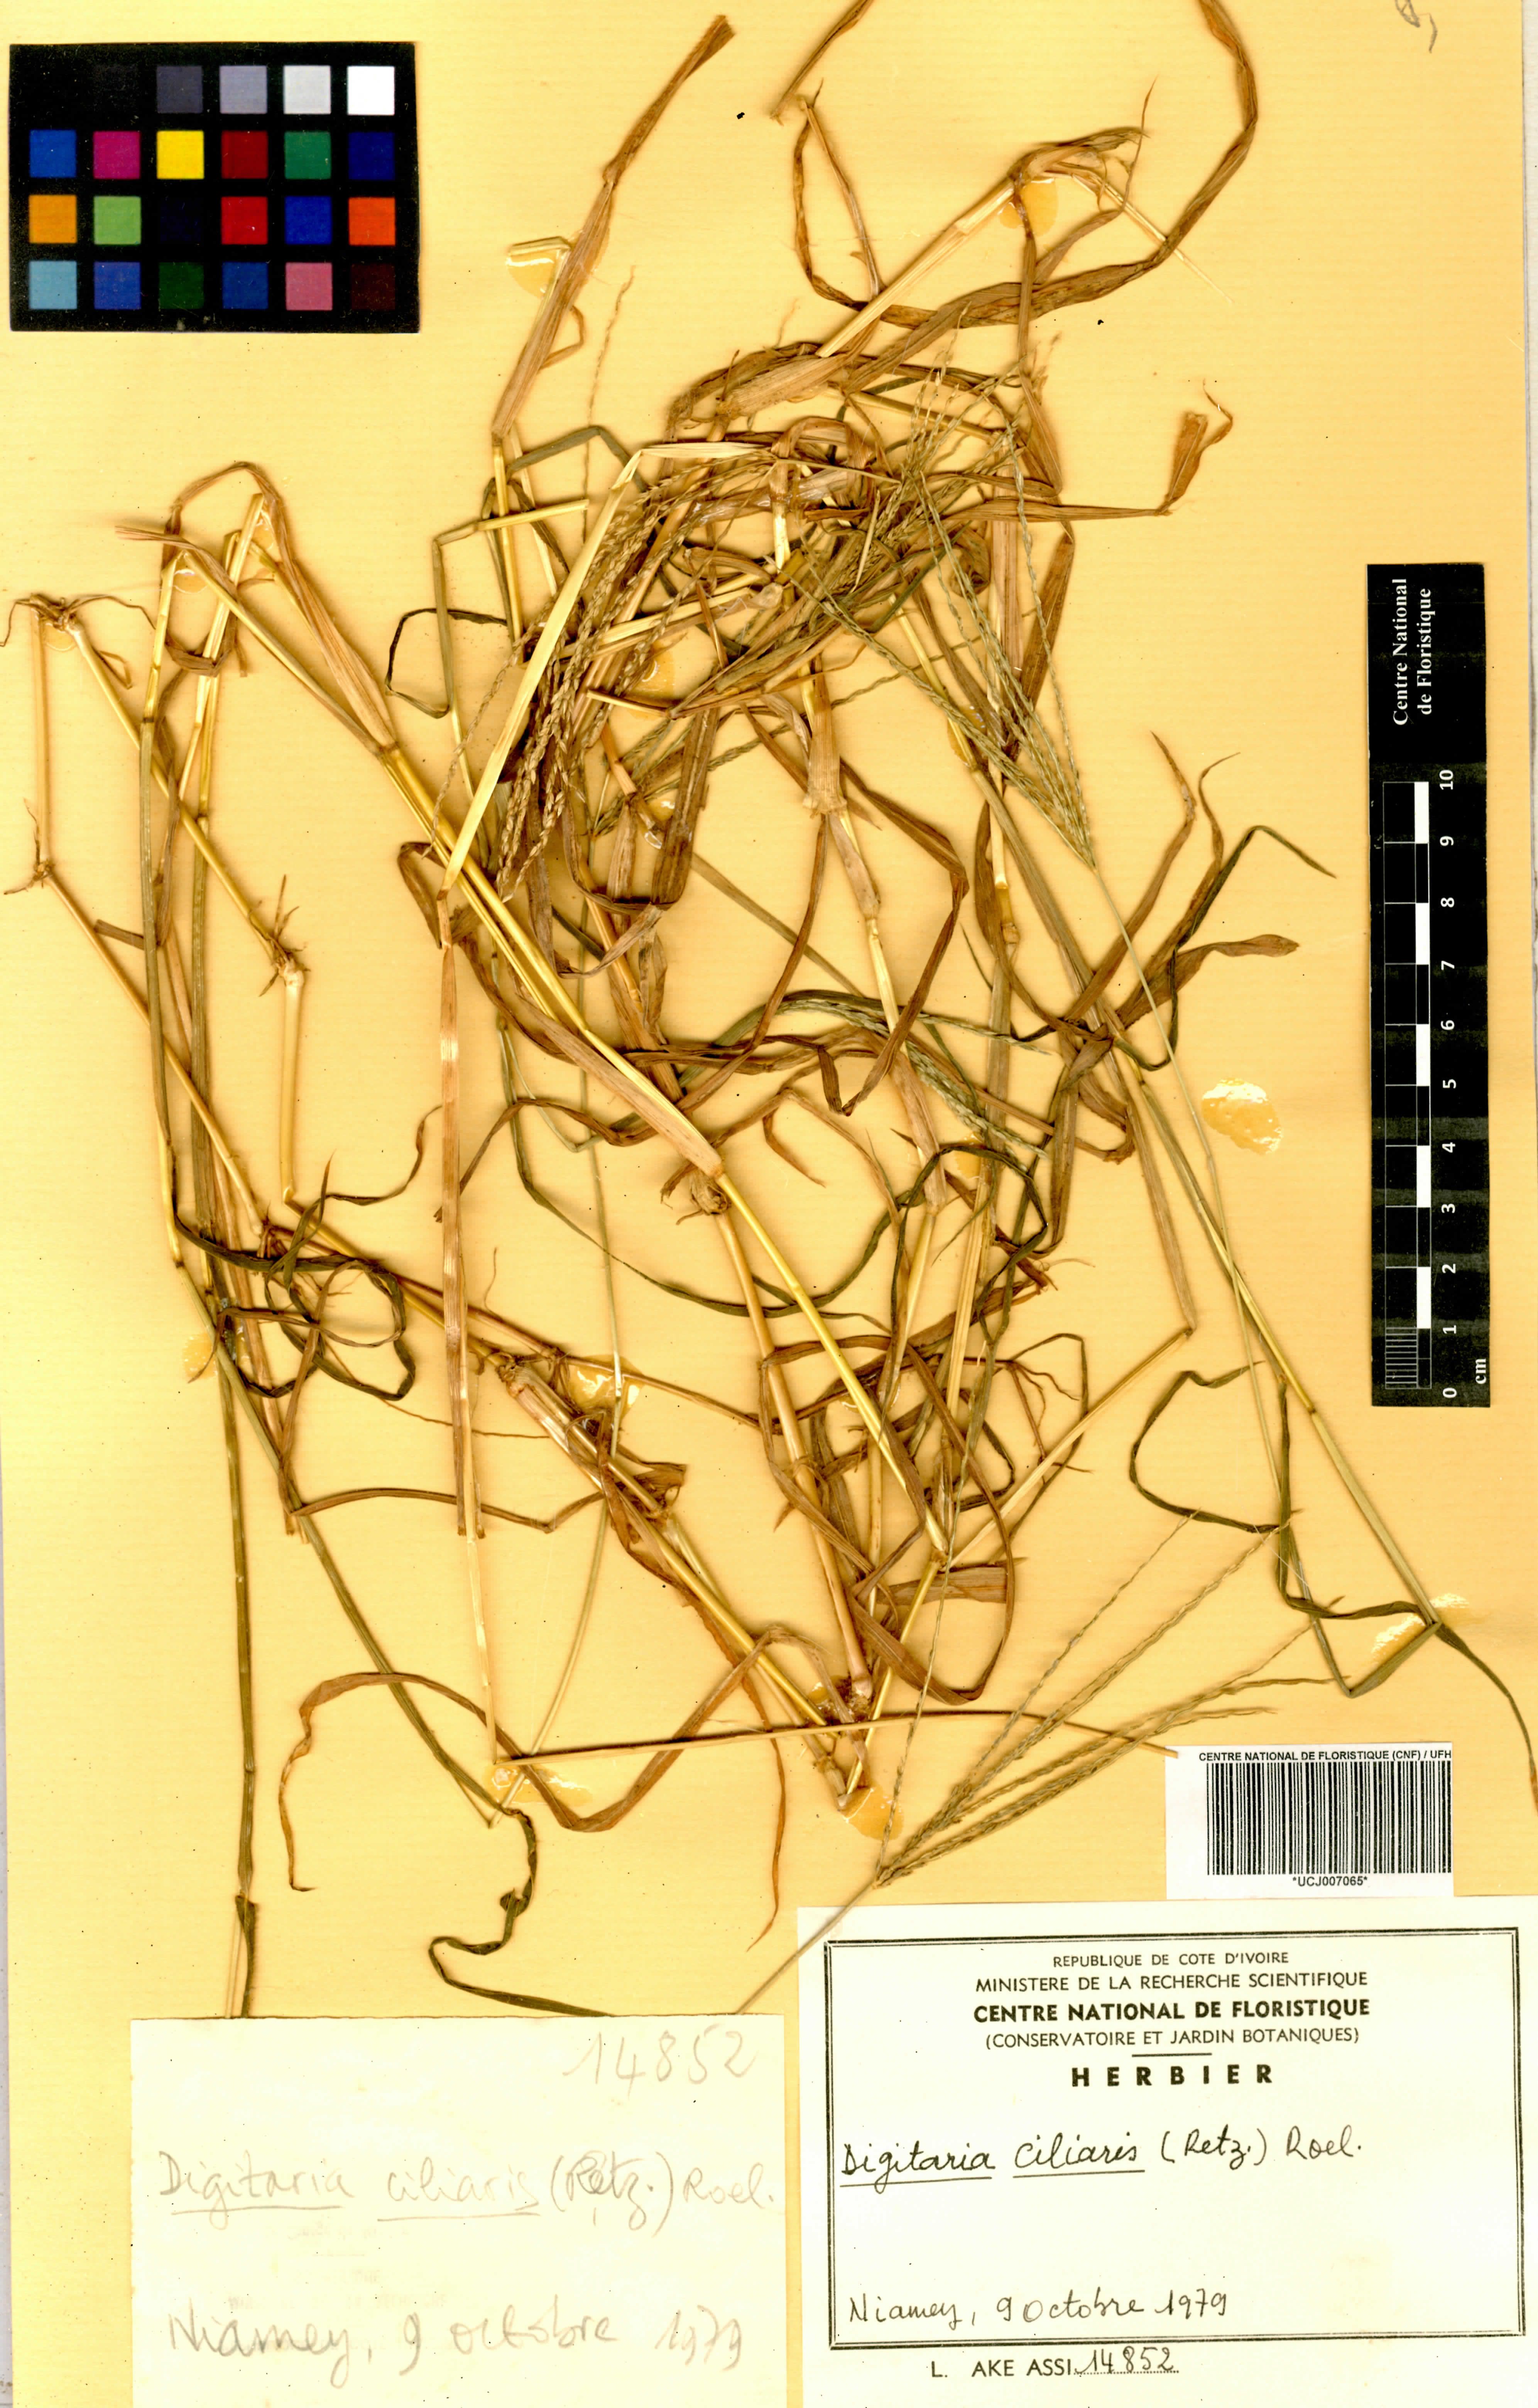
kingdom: Plantae
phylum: Tracheophyta
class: Liliopsida
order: Poales
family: Poaceae
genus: Digitaria
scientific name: Digitaria ciliaris
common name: Tropical finger-grass
